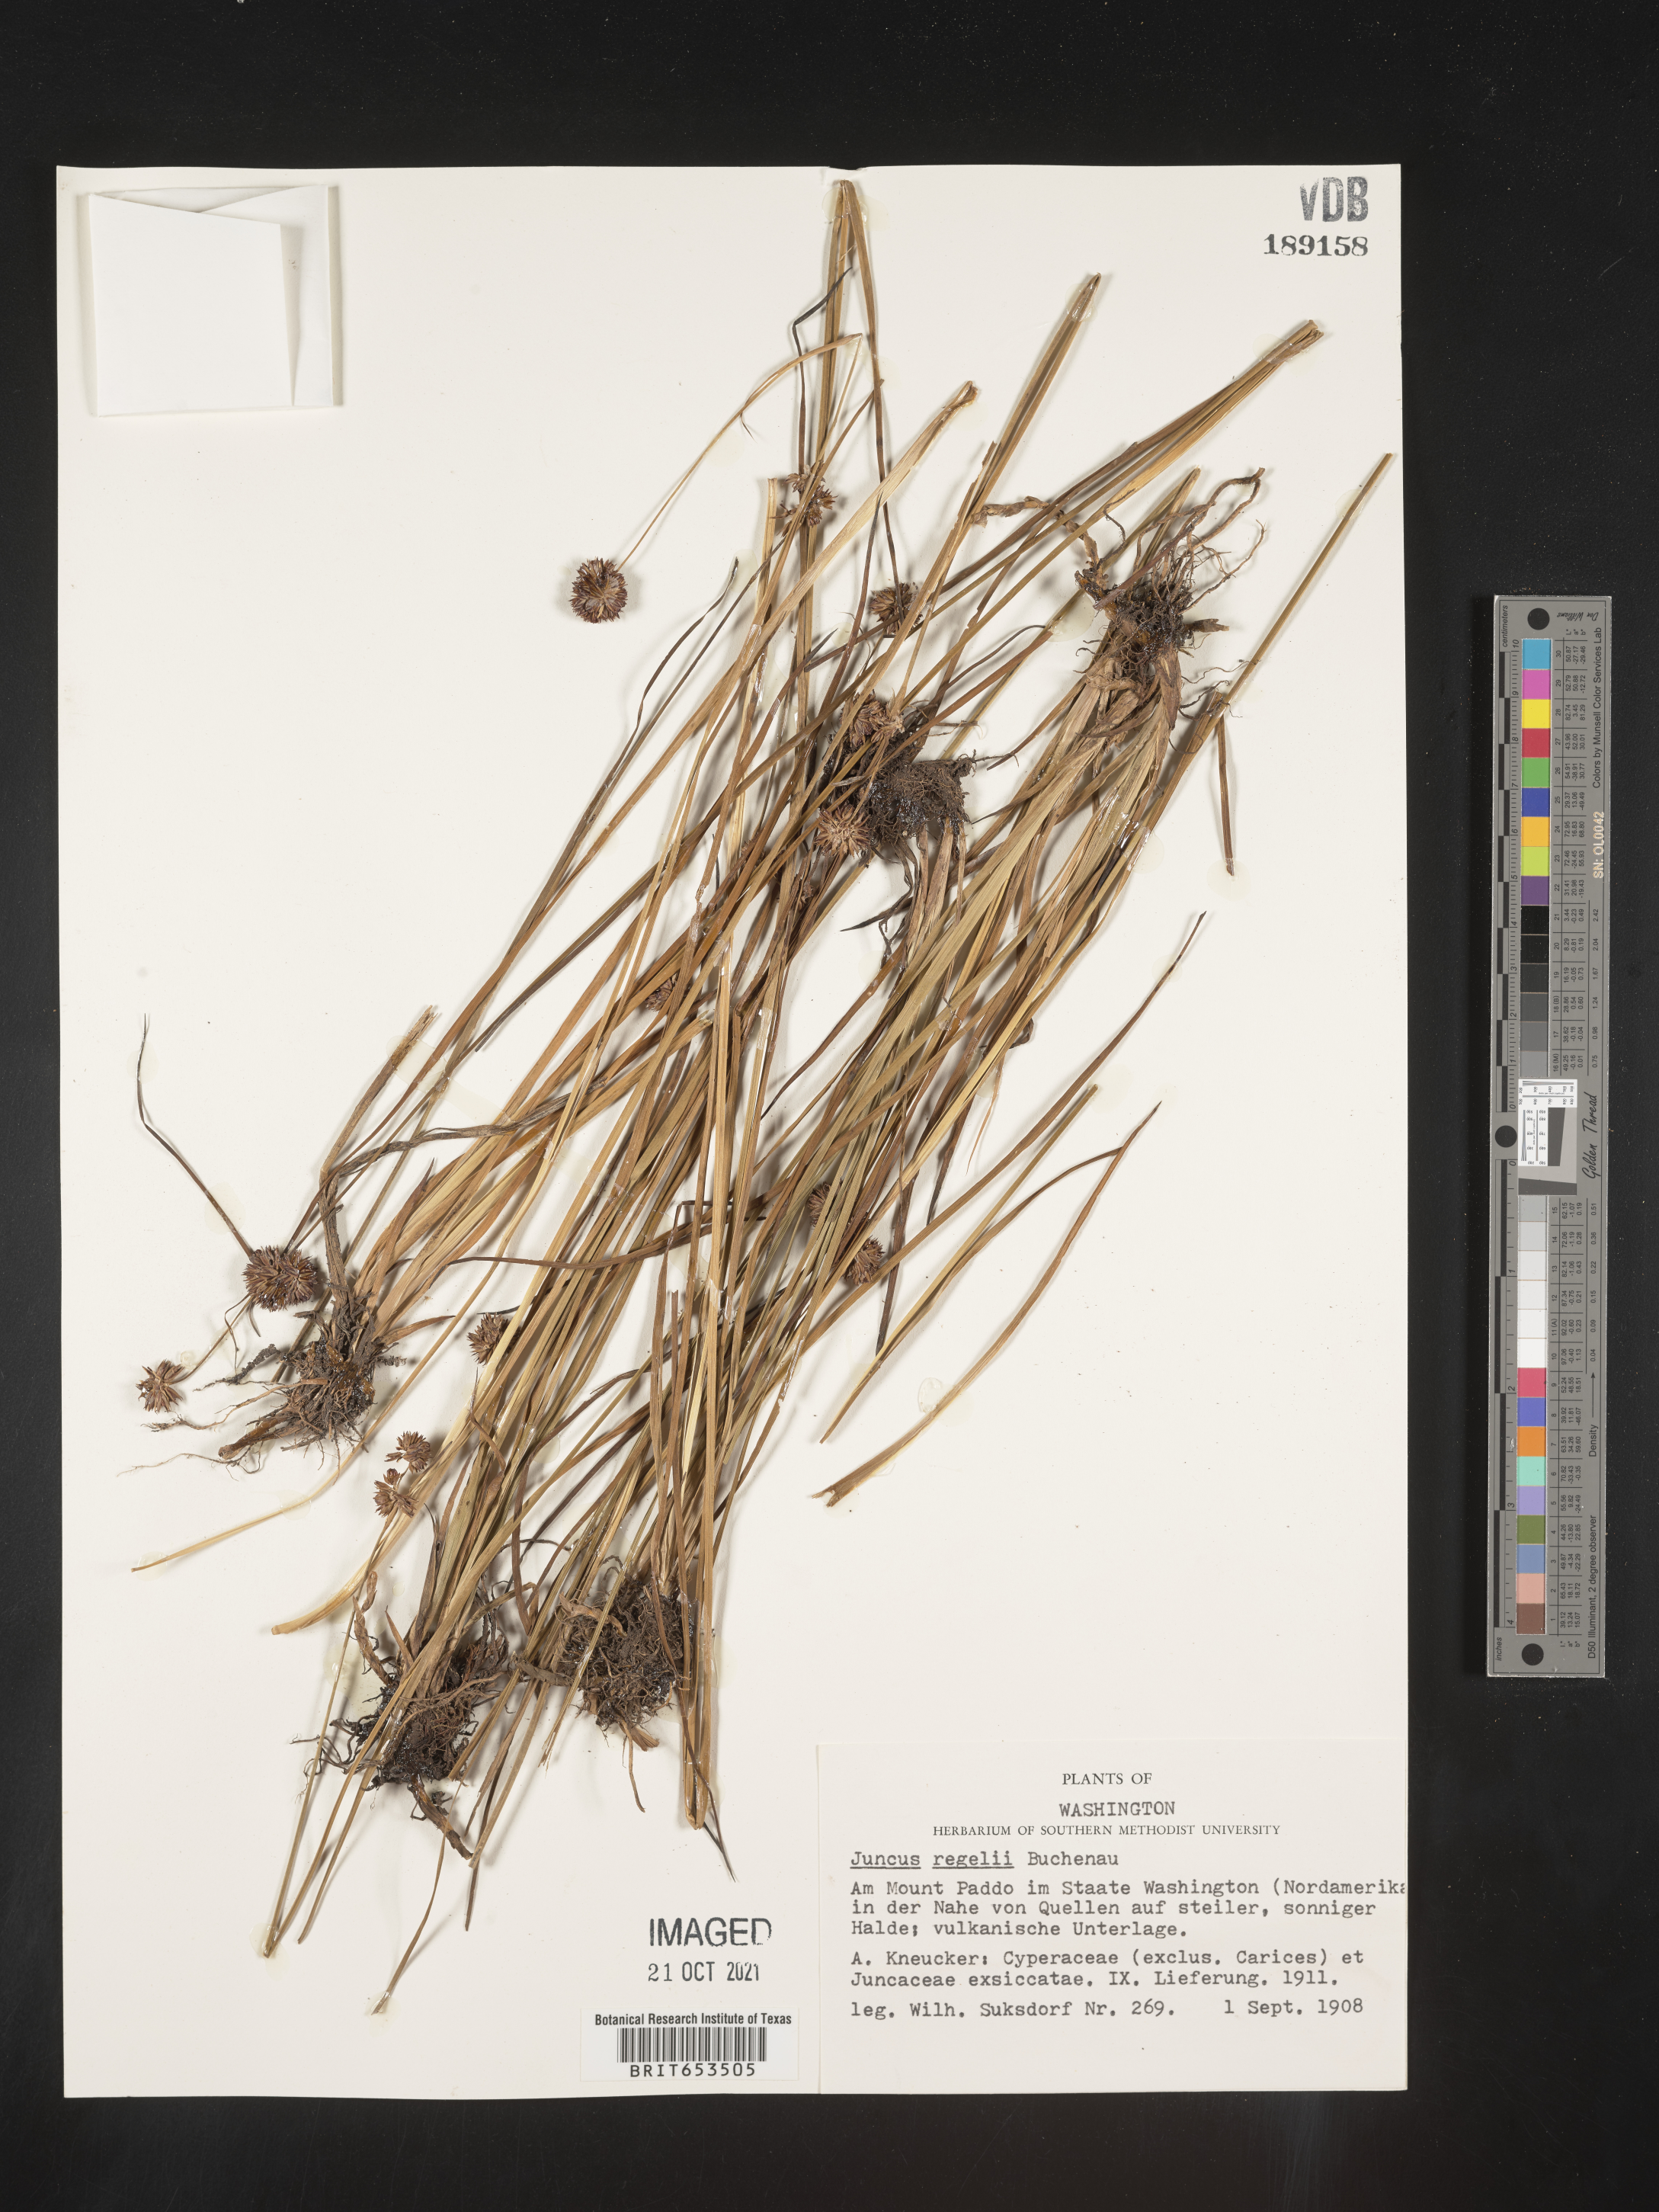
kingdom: Plantae
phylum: Tracheophyta
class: Liliopsida
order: Poales
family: Juncaceae
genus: Juncus
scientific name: Juncus regelii
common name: Regel's rush
